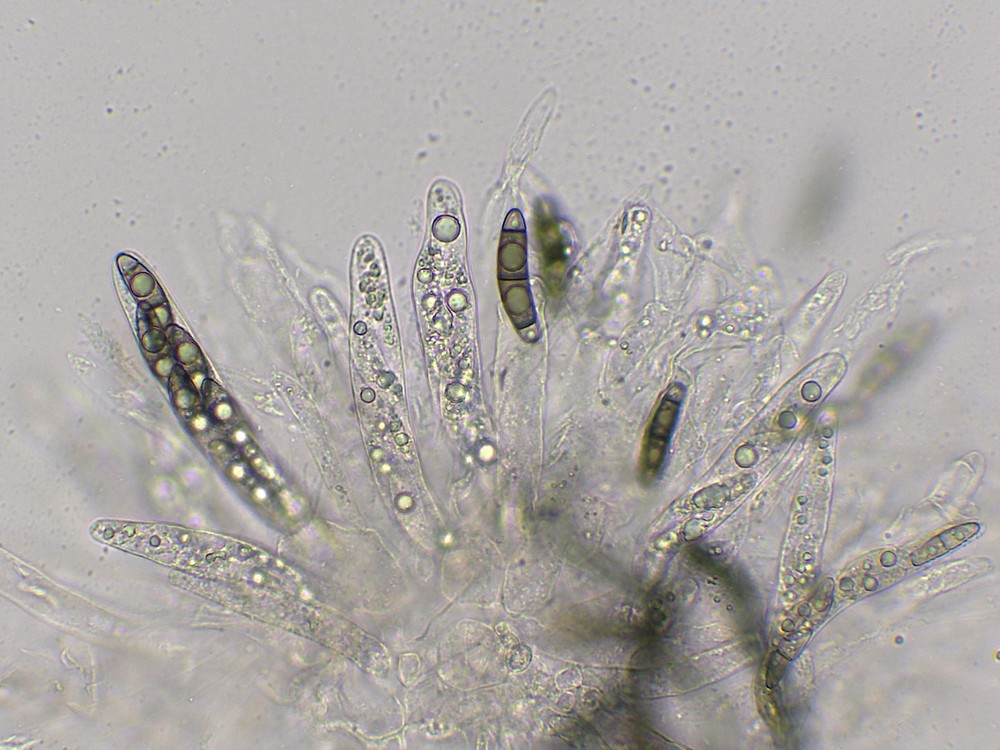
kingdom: Fungi
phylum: Ascomycota
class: Sordariomycetes
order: Coronophorales
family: Chaetosphaerellaceae
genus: Chaetosphaerella
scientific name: Chaetosphaerella phaeostroma
